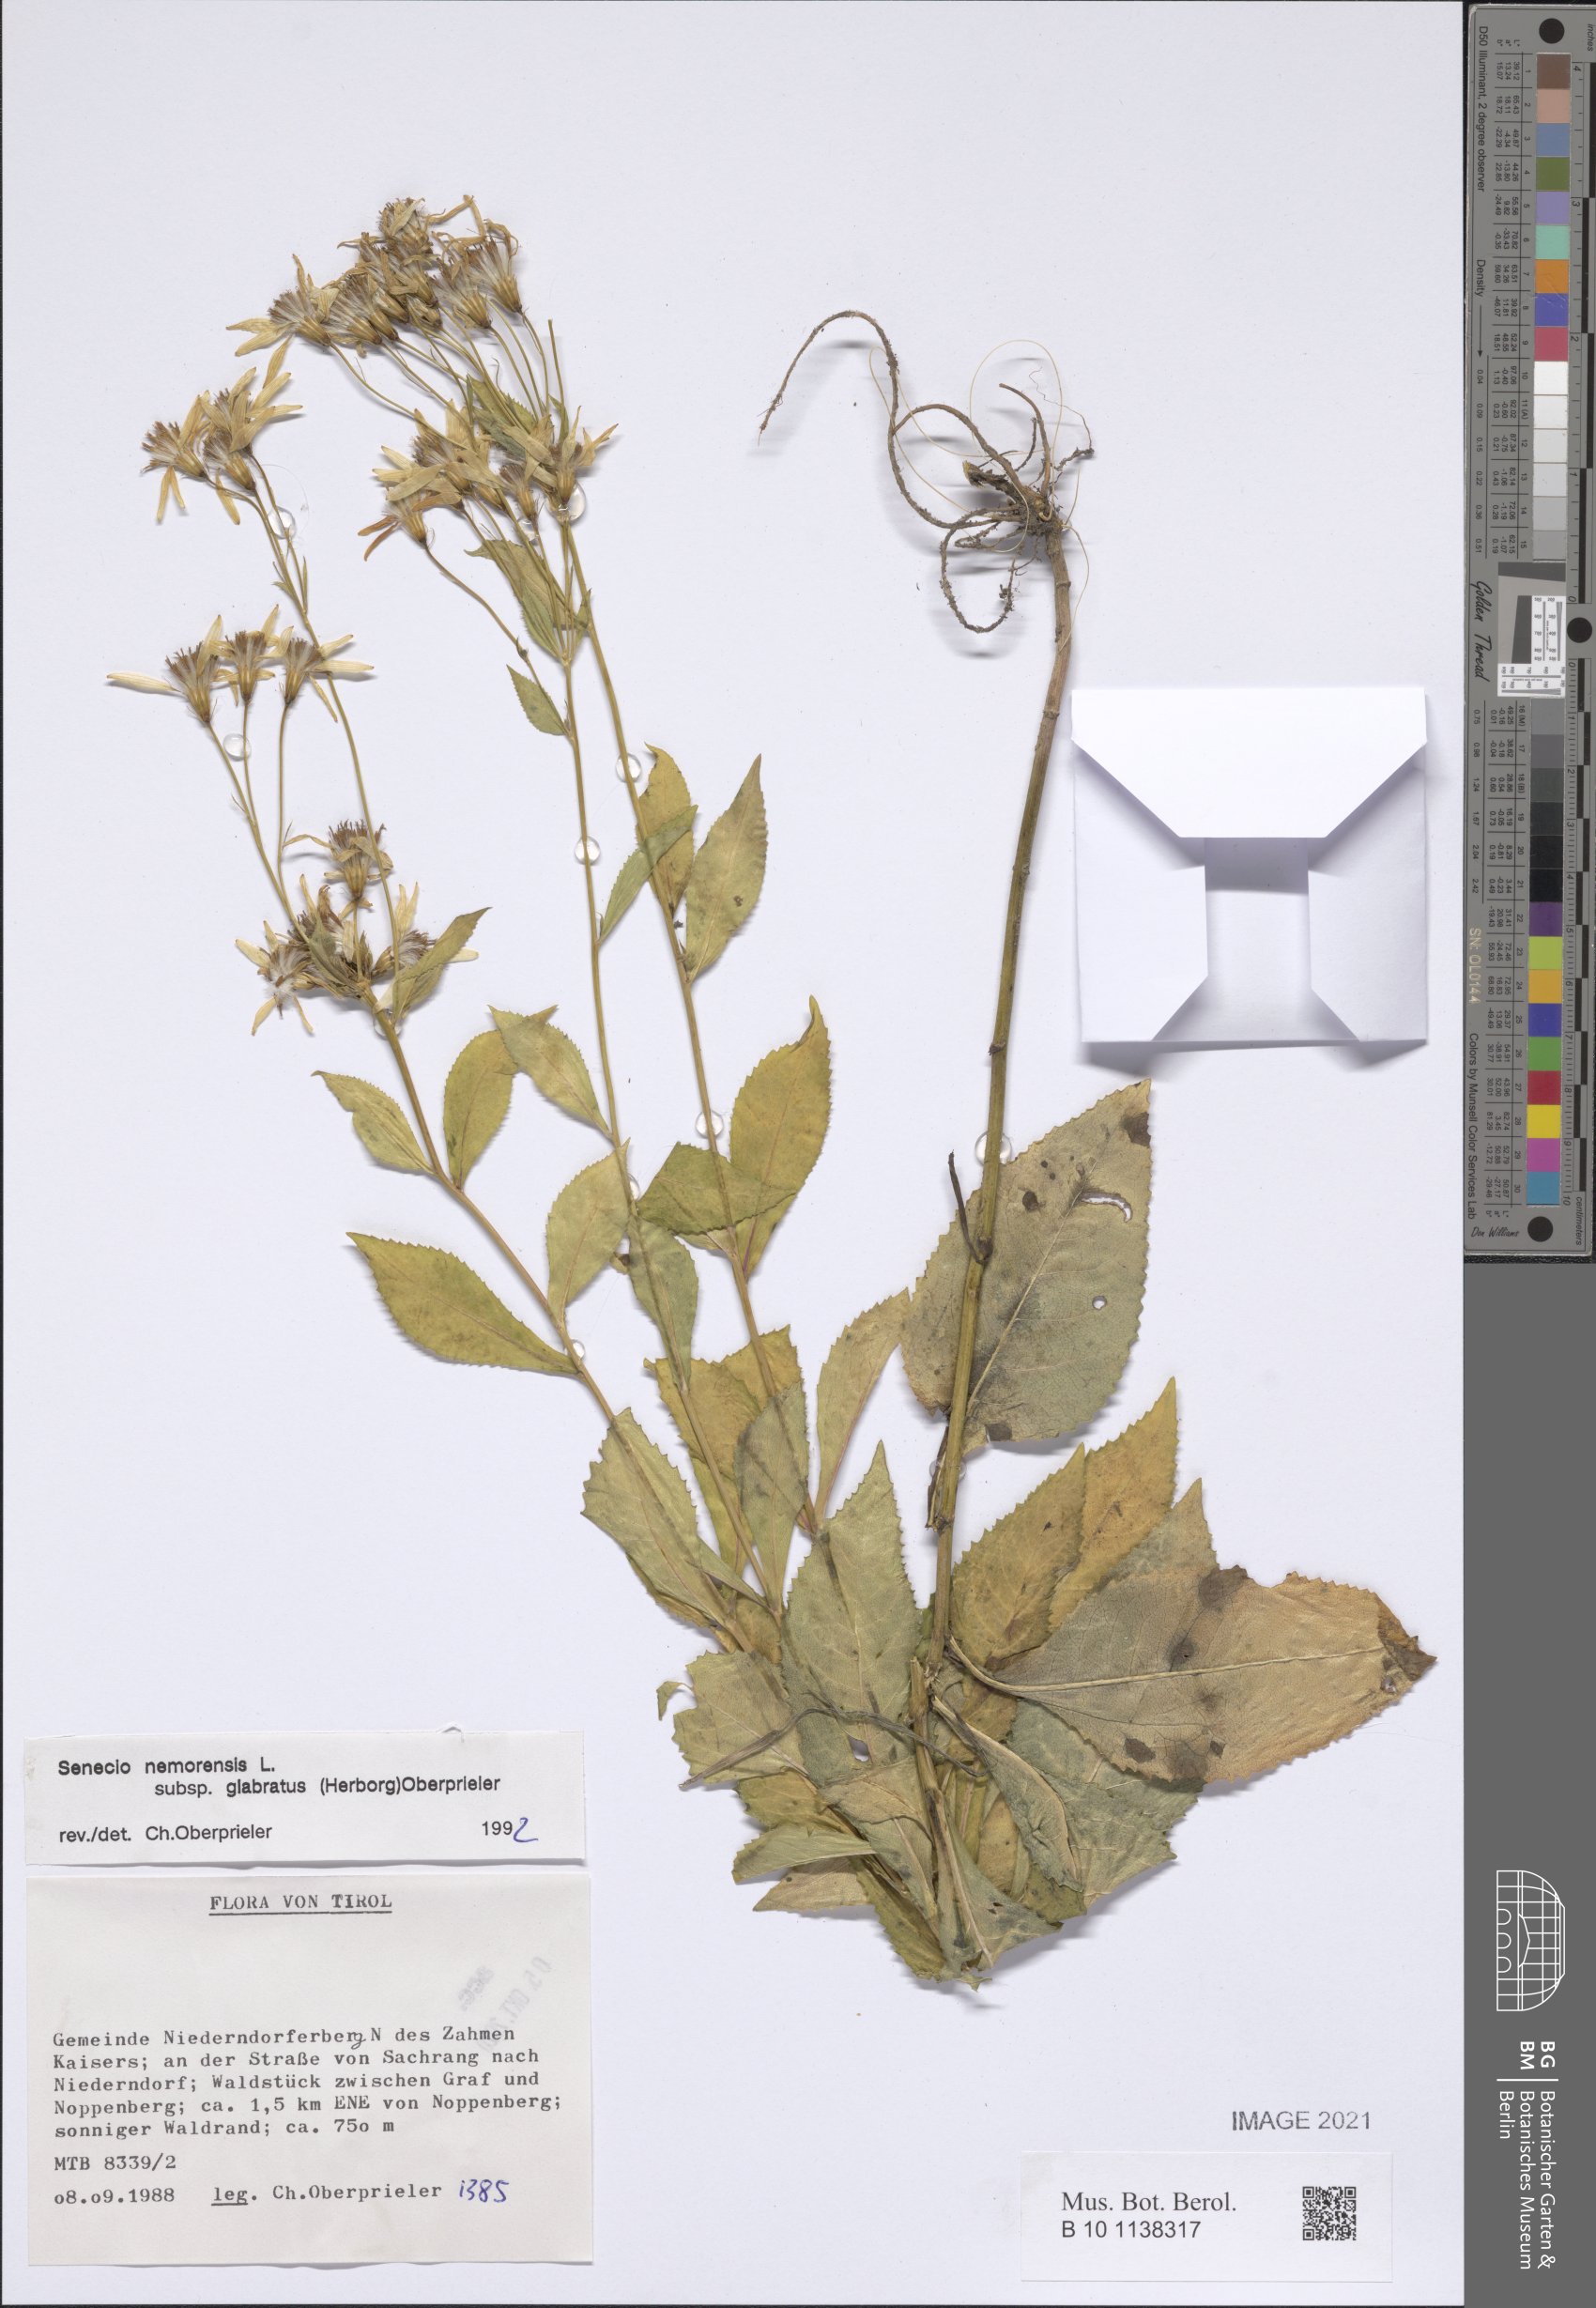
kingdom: Plantae
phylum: Tracheophyta
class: Magnoliopsida
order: Asterales
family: Asteraceae
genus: Senecio
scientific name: Senecio germanicus
